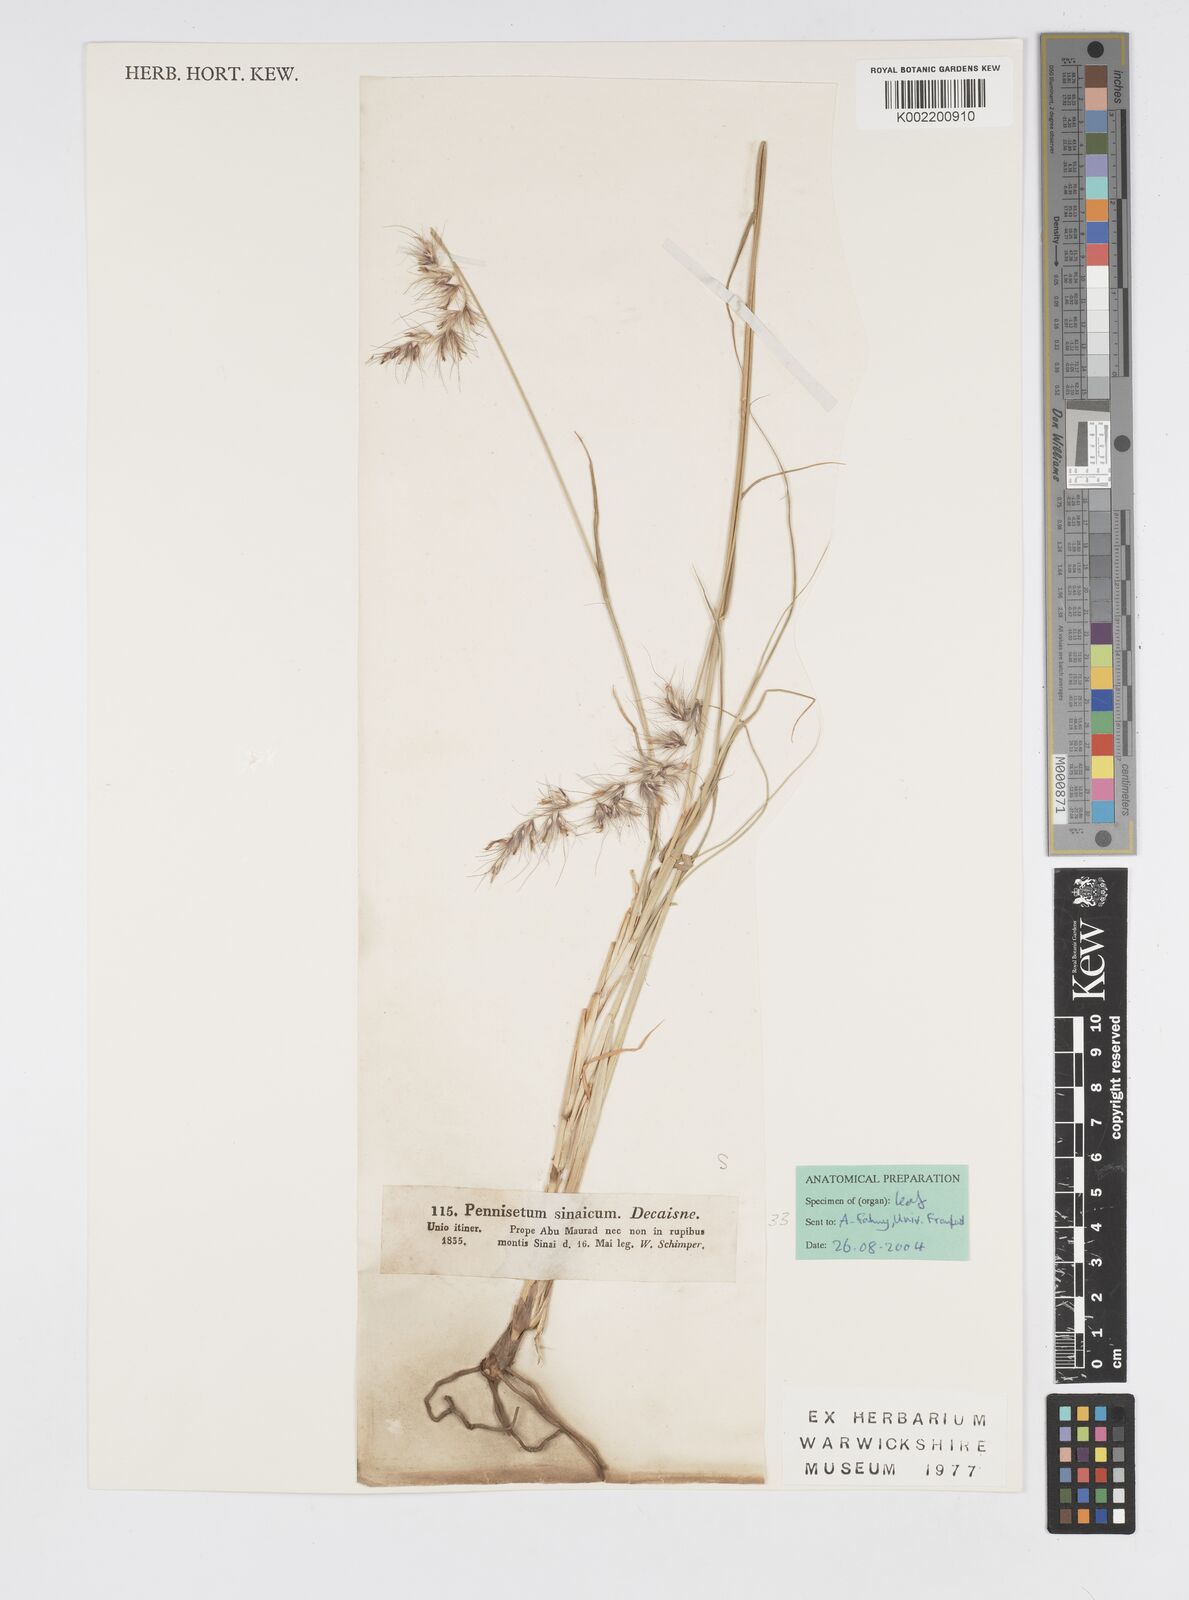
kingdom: Plantae
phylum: Tracheophyta
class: Liliopsida
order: Poales
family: Poaceae
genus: Cenchrus
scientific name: Cenchrus orientalis
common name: Oriental fountain grass
